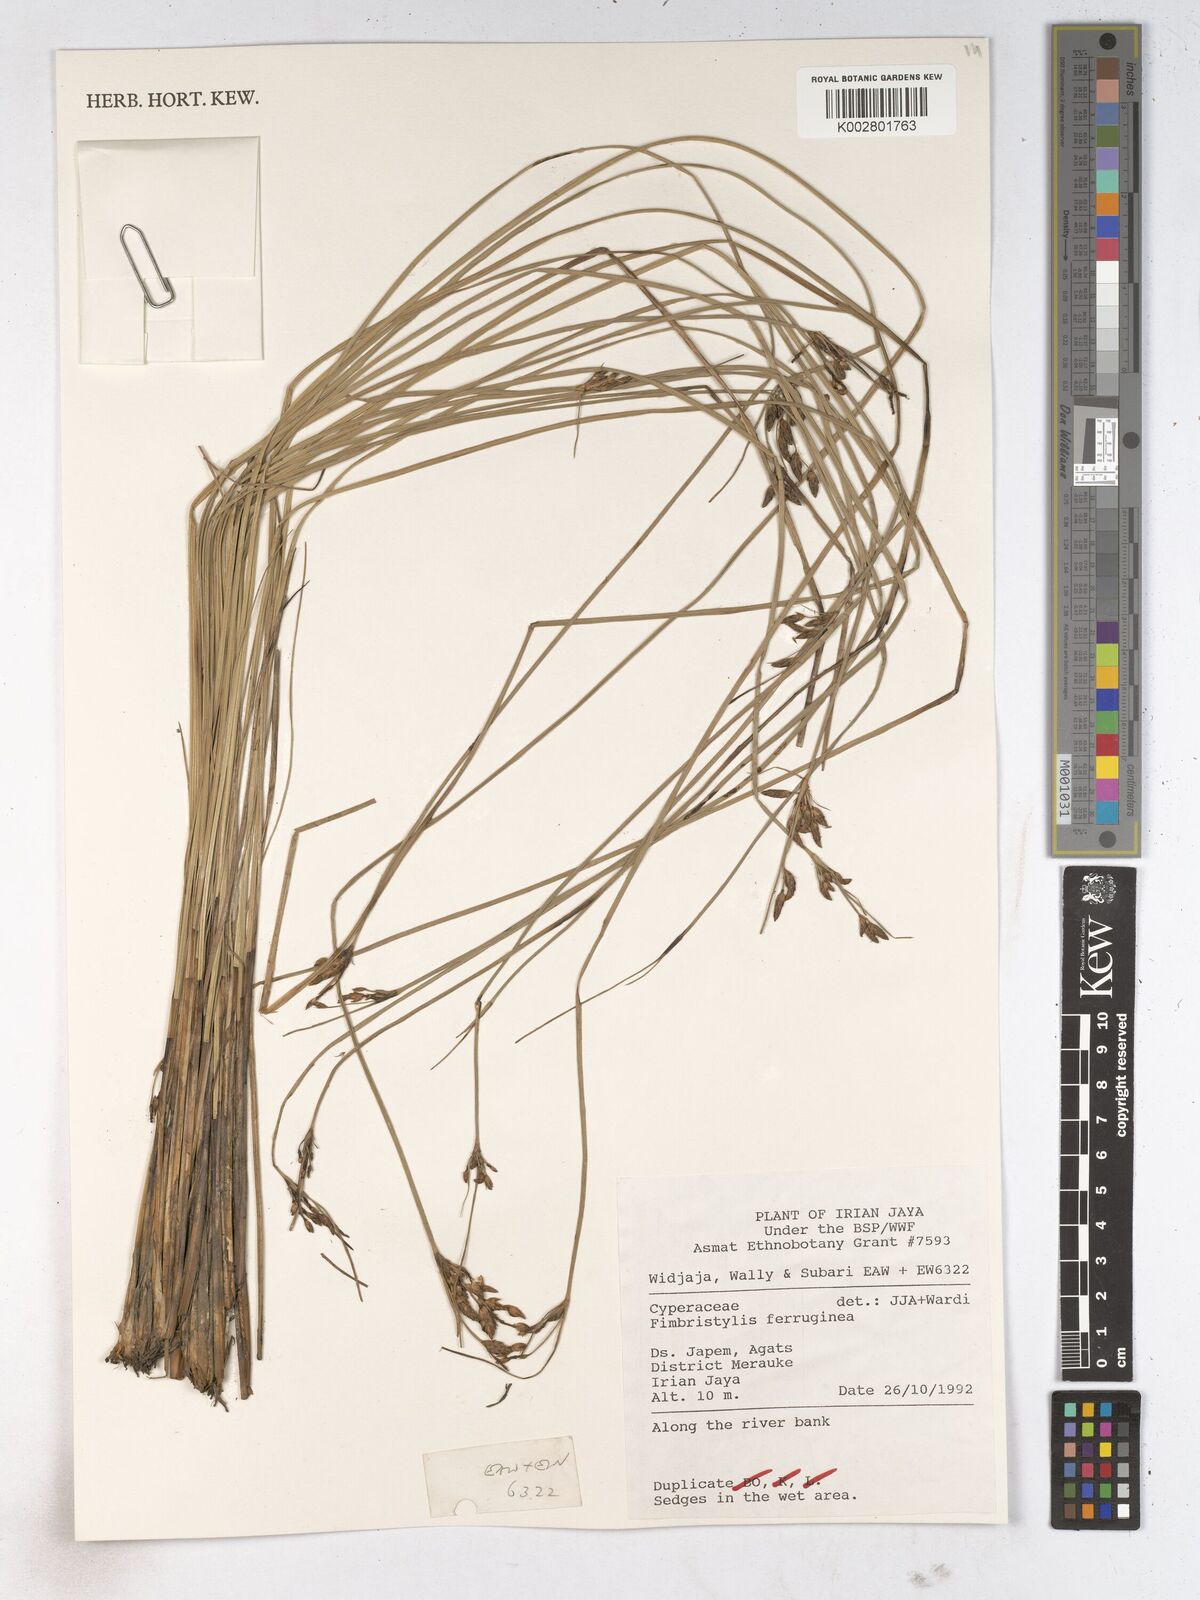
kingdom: Plantae
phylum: Tracheophyta
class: Liliopsida
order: Poales
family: Cyperaceae
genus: Fimbristylis
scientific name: Fimbristylis ferruginea
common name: West indian fimbry
